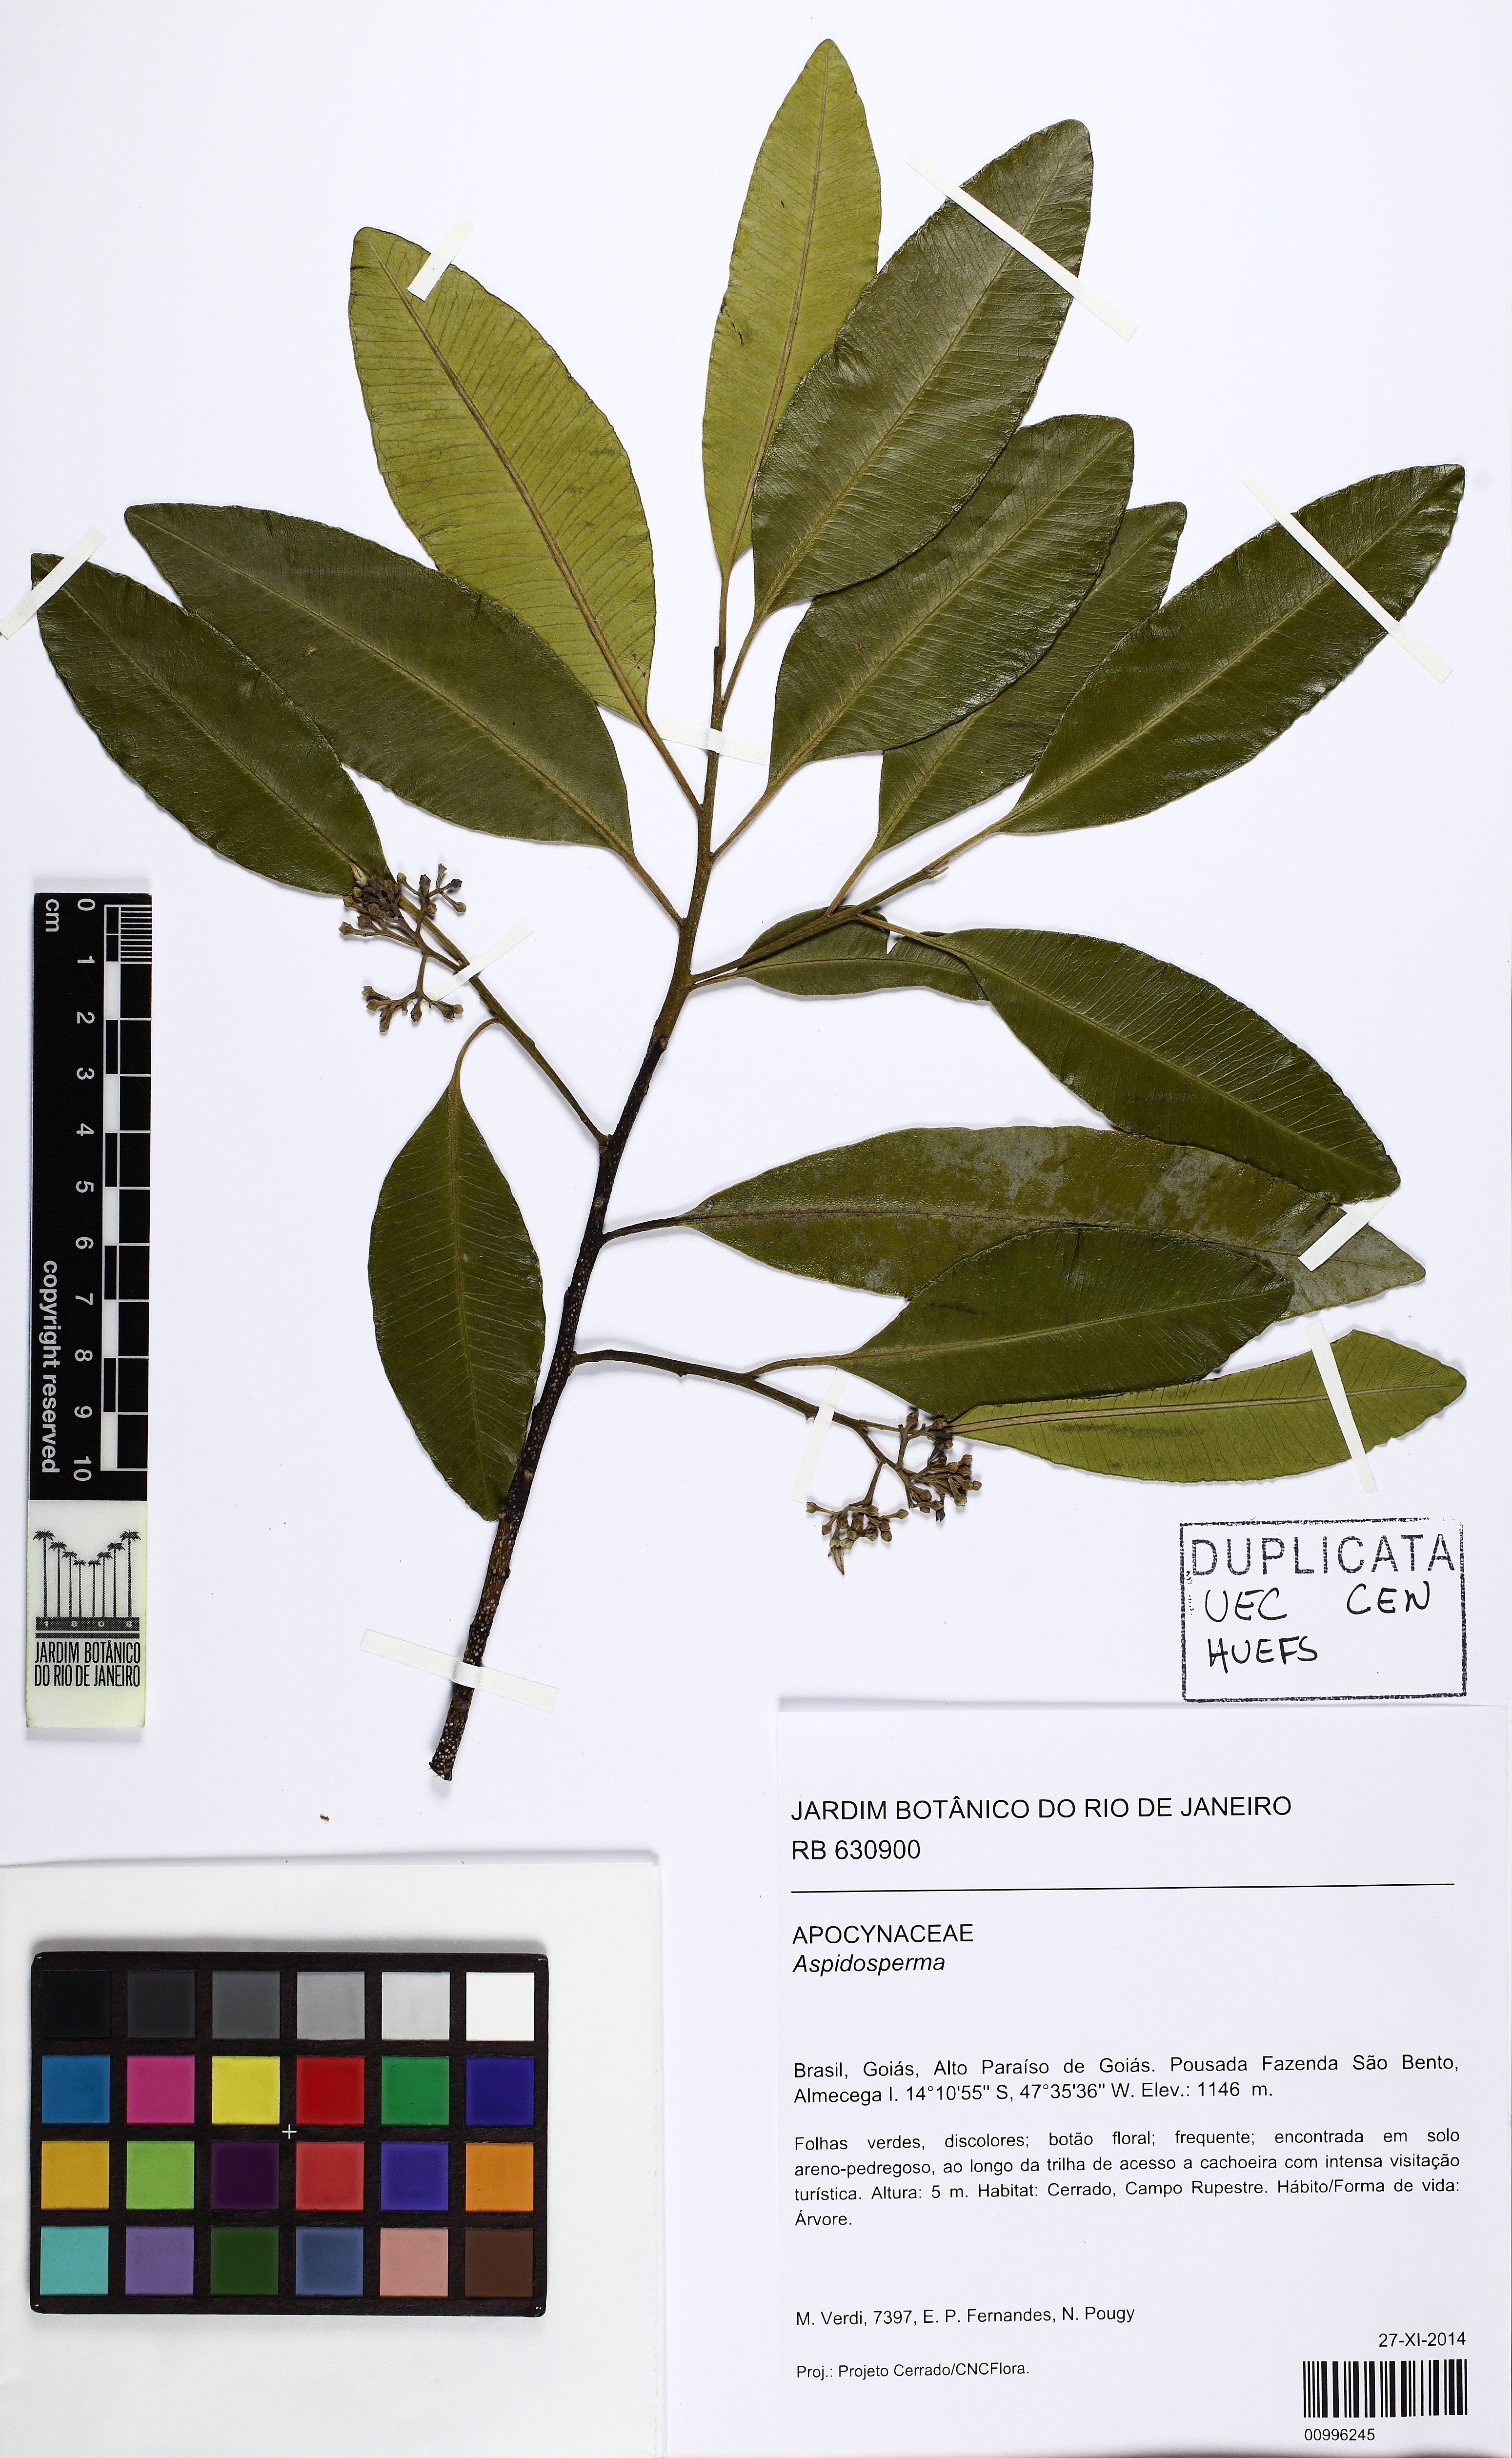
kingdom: Plantae
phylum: Tracheophyta
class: Magnoliopsida
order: Gentianales
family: Apocynaceae
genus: Aspidosperma
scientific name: Aspidosperma brasiliense
